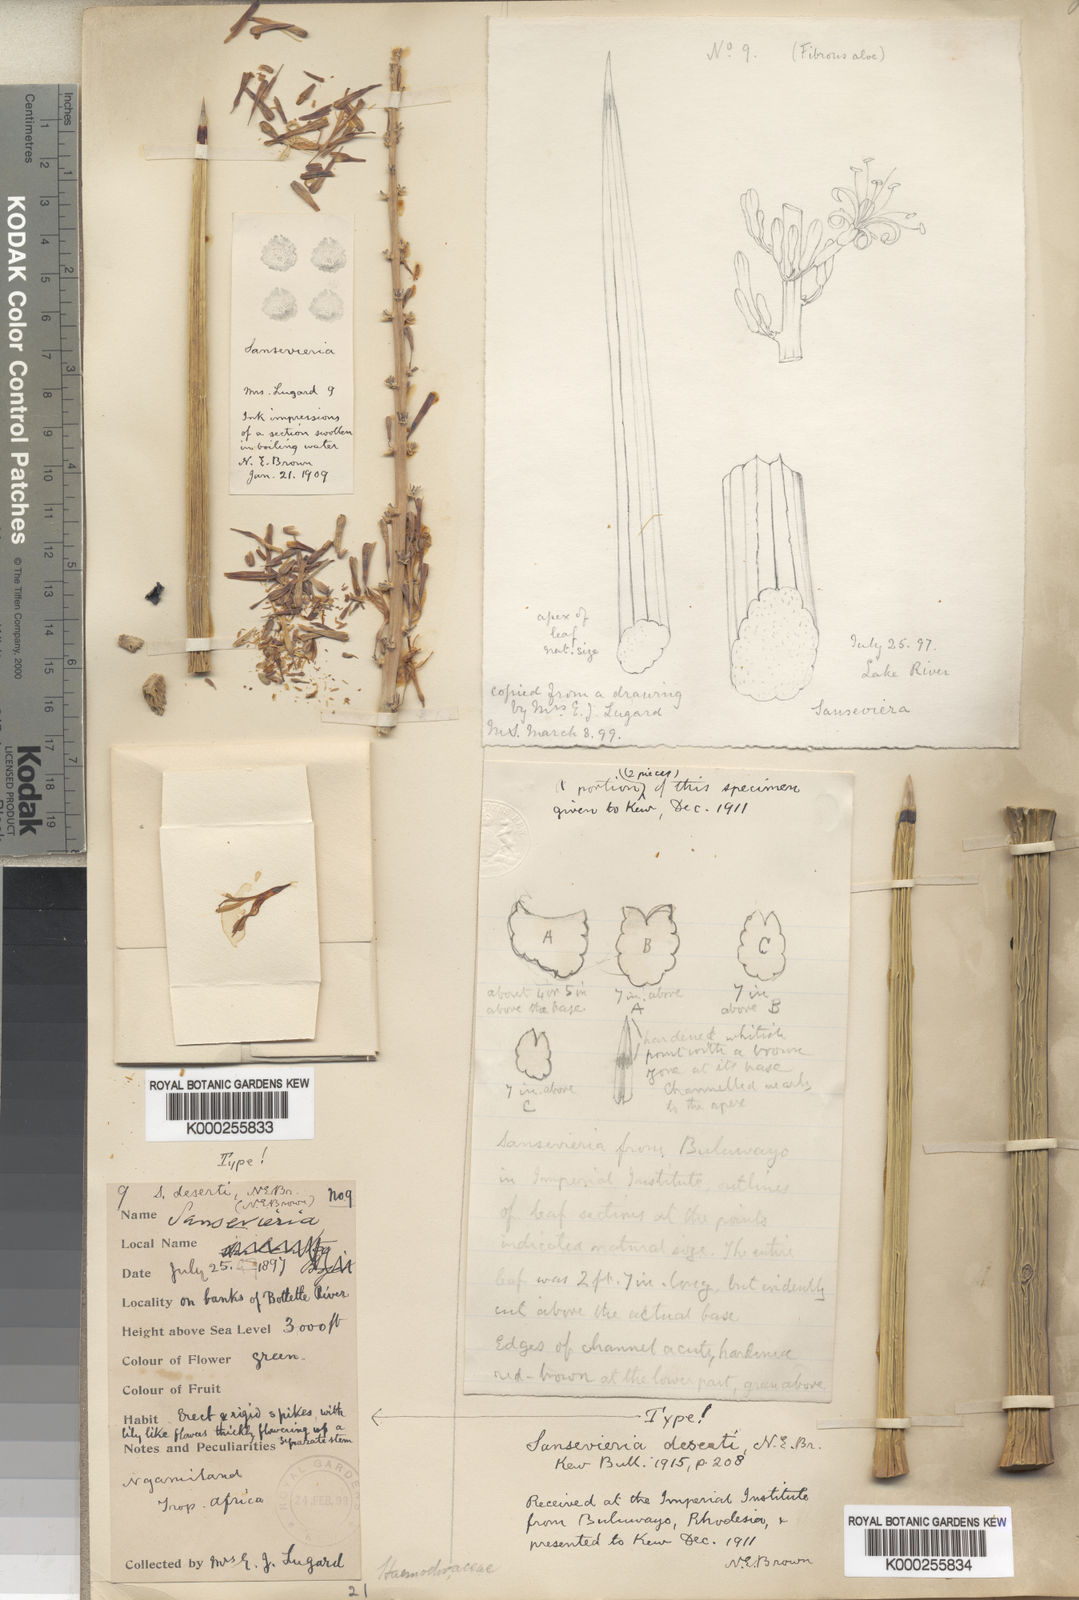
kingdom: Plantae
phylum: Tracheophyta
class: Liliopsida
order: Asparagales
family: Asparagaceae
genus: Dracaena
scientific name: Dracaena pearsonii
